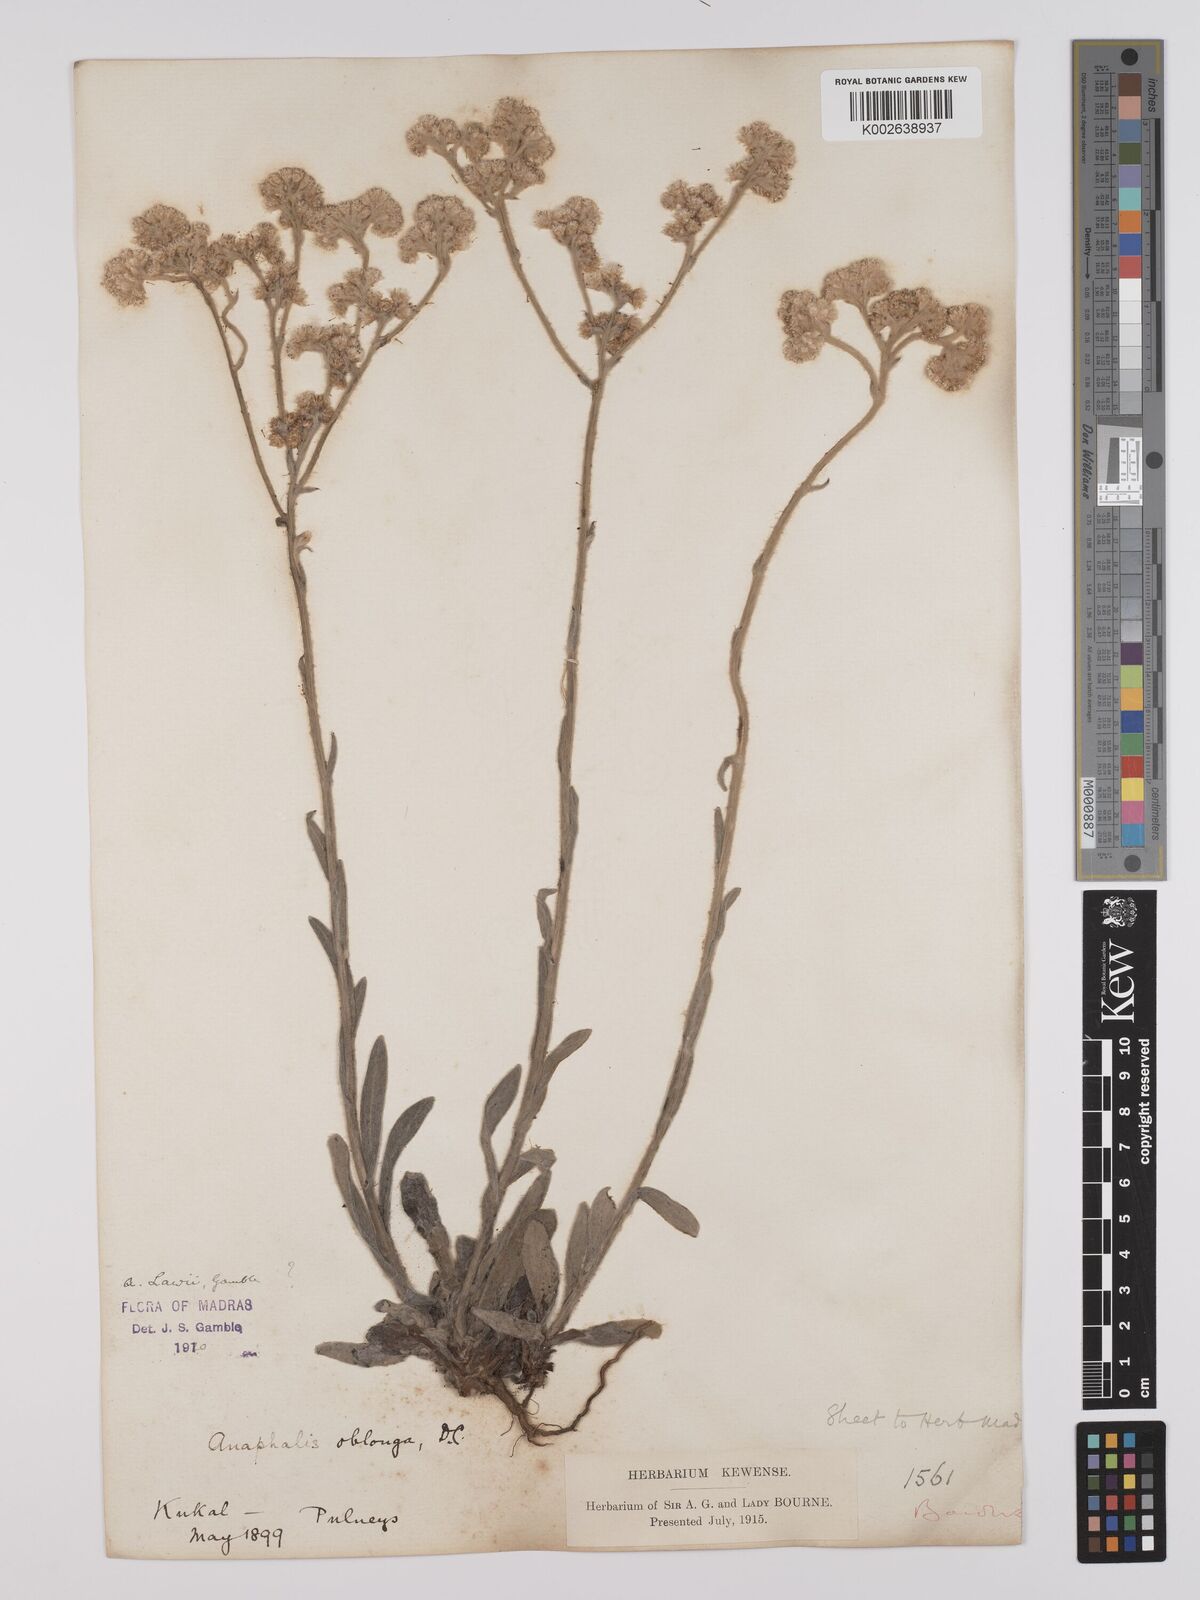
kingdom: Plantae
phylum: Tracheophyta
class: Magnoliopsida
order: Asterales
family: Asteraceae
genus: Anaphalis
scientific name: Anaphalis lawii
